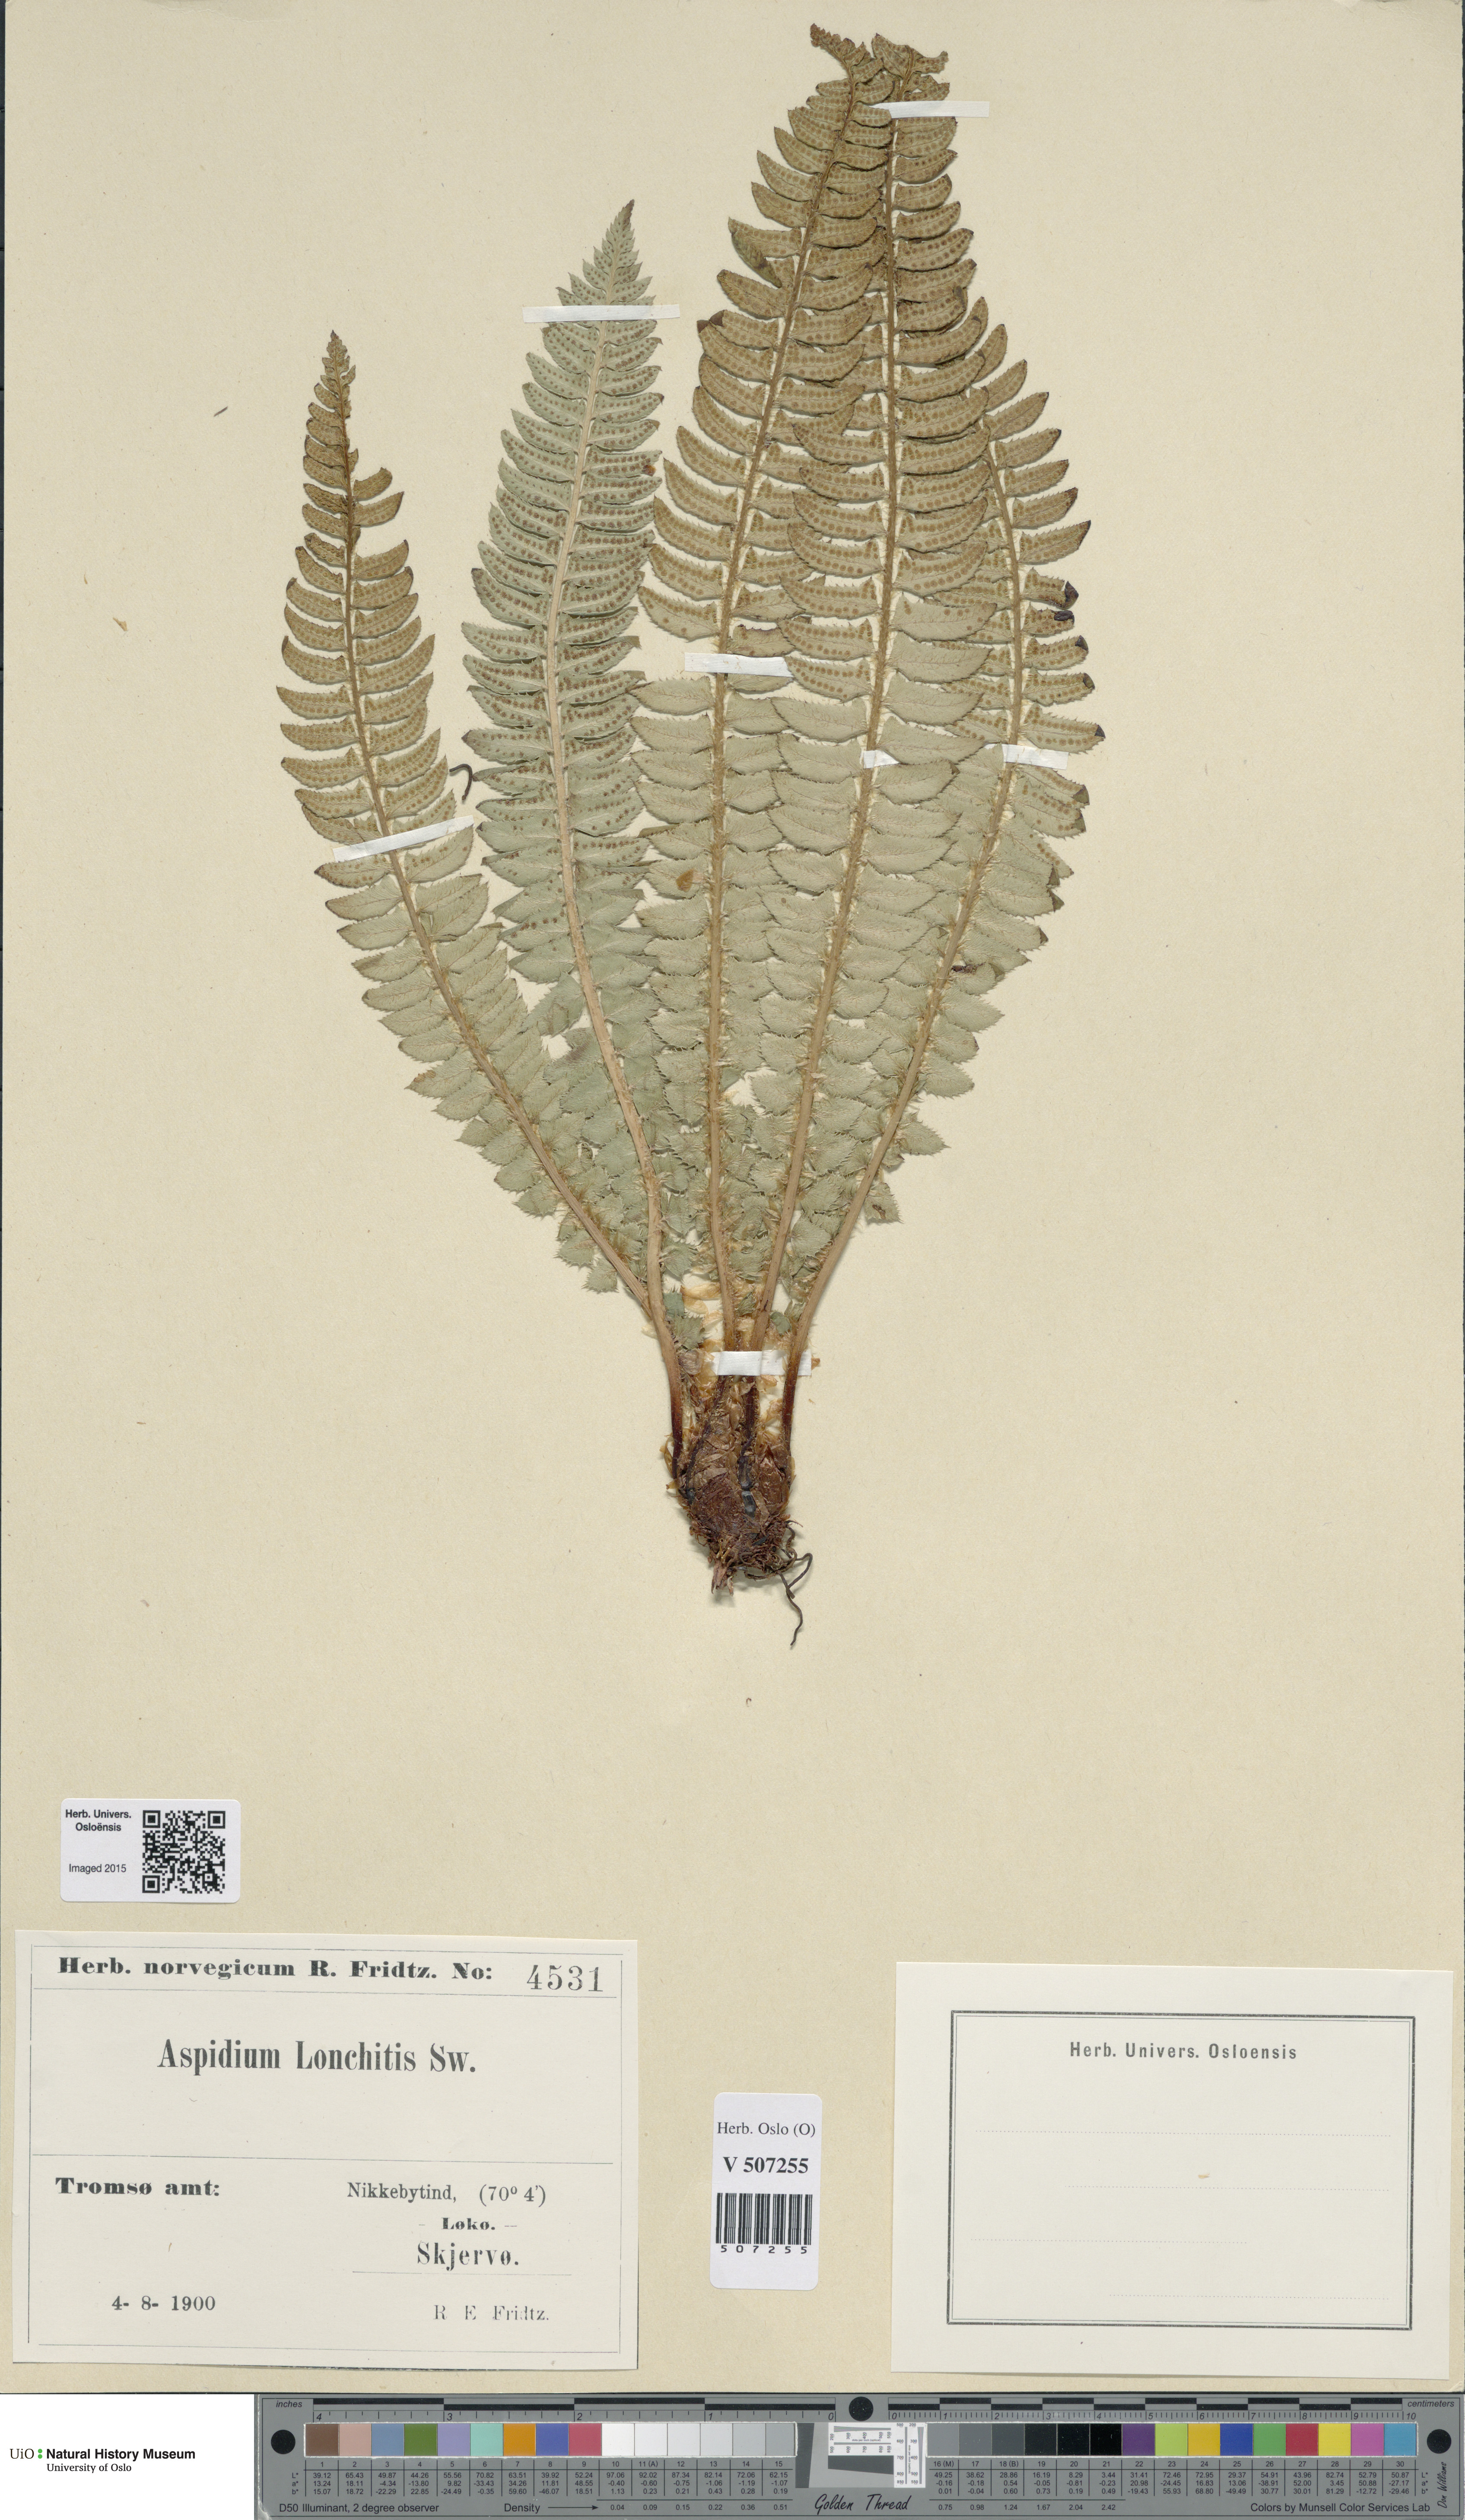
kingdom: Plantae
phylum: Tracheophyta
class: Polypodiopsida
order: Polypodiales
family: Dryopteridaceae
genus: Polystichum
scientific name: Polystichum lonchitis
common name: Holly fern
